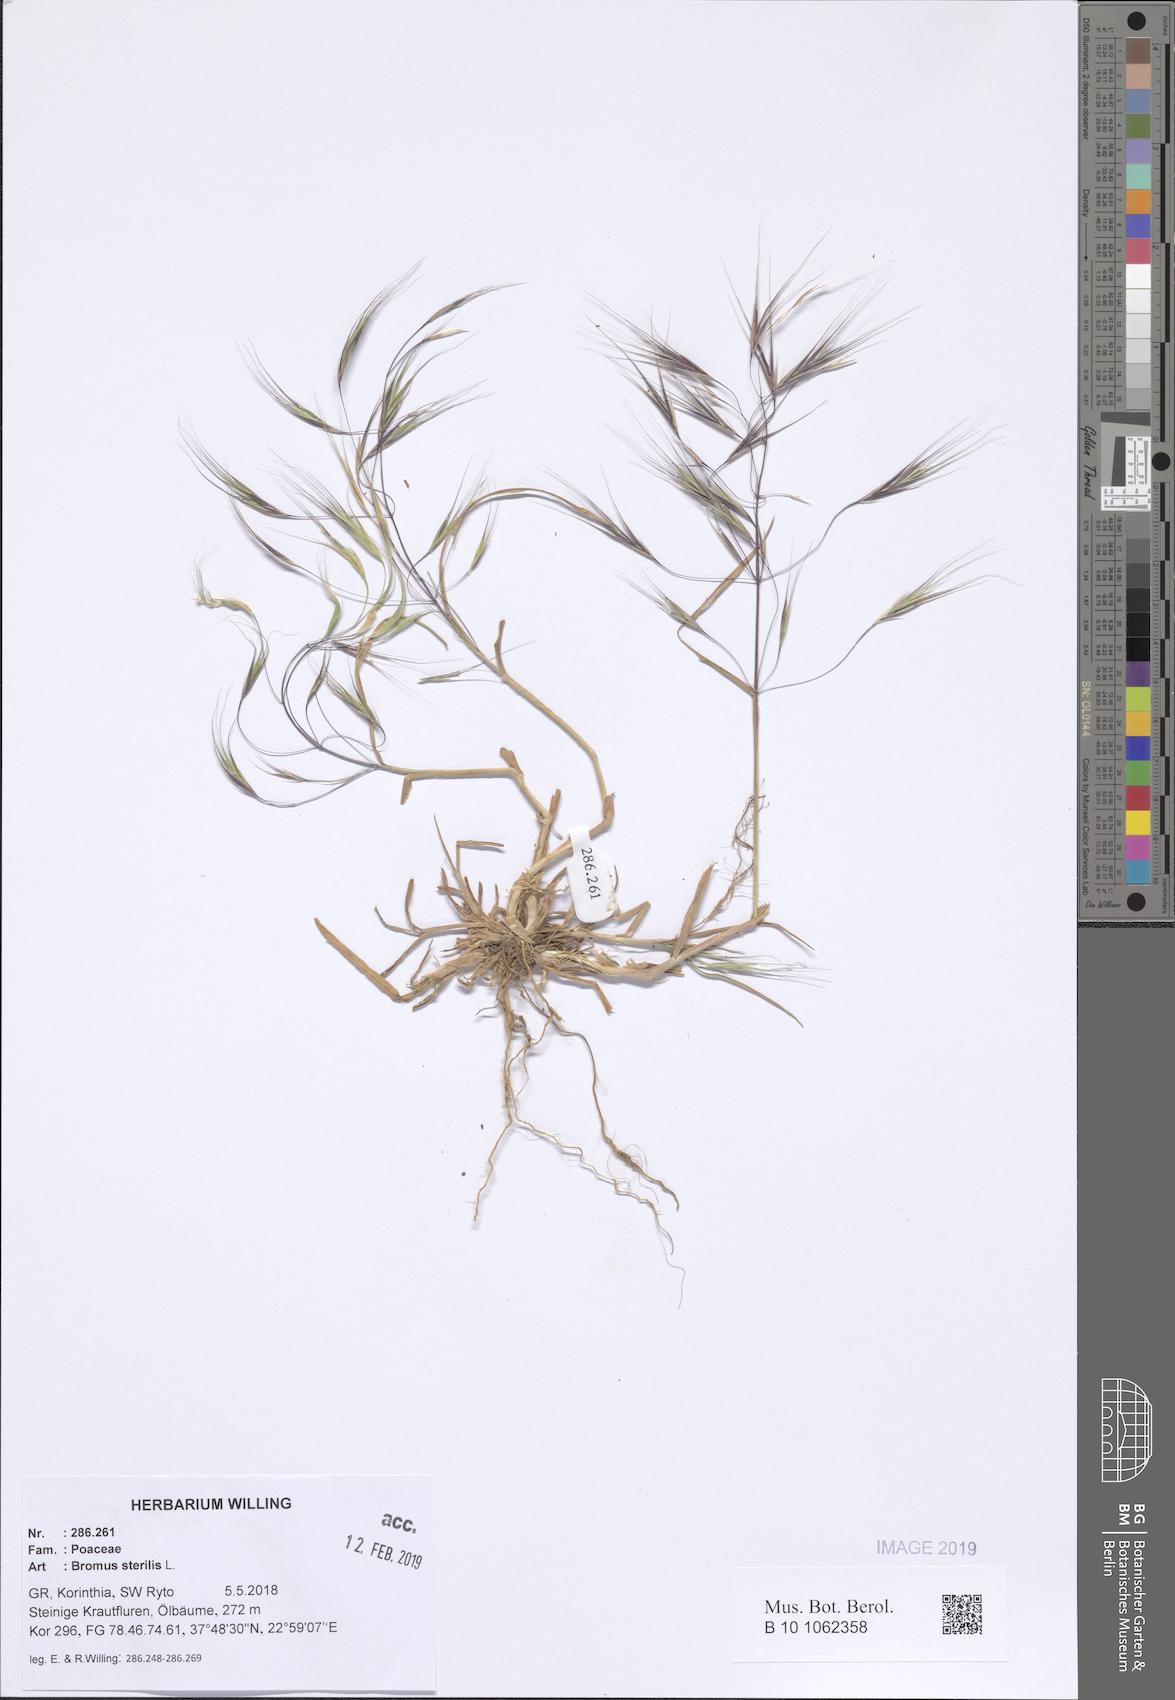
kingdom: Plantae
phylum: Tracheophyta
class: Liliopsida
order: Poales
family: Poaceae
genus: Bromus
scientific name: Bromus sterilis
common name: Poverty brome
